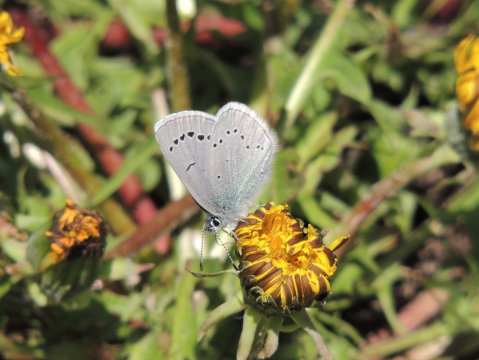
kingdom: Animalia
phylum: Arthropoda
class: Insecta
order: Lepidoptera
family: Lycaenidae
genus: Glaucopsyche
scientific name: Glaucopsyche lygdamus
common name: Silvery Blue
